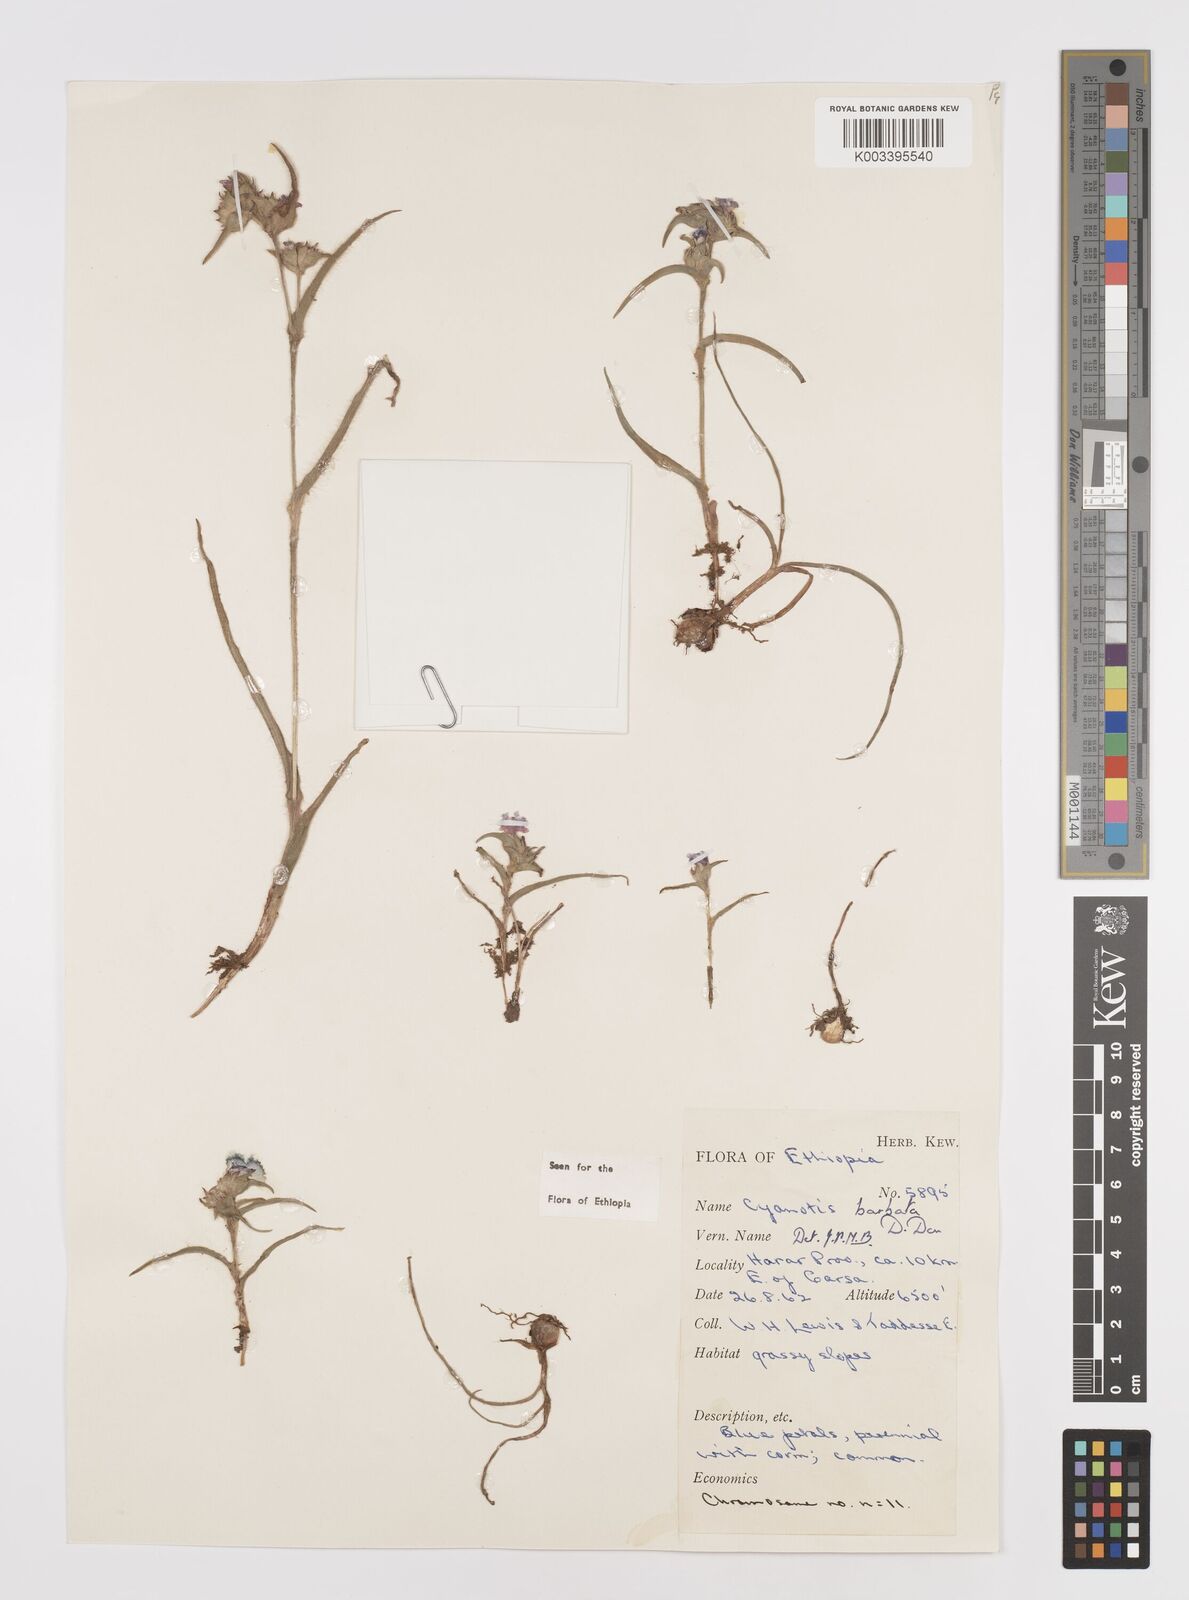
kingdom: Plantae
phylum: Tracheophyta
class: Liliopsida
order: Commelinales
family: Commelinaceae
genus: Cyanotis
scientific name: Cyanotis vaga
